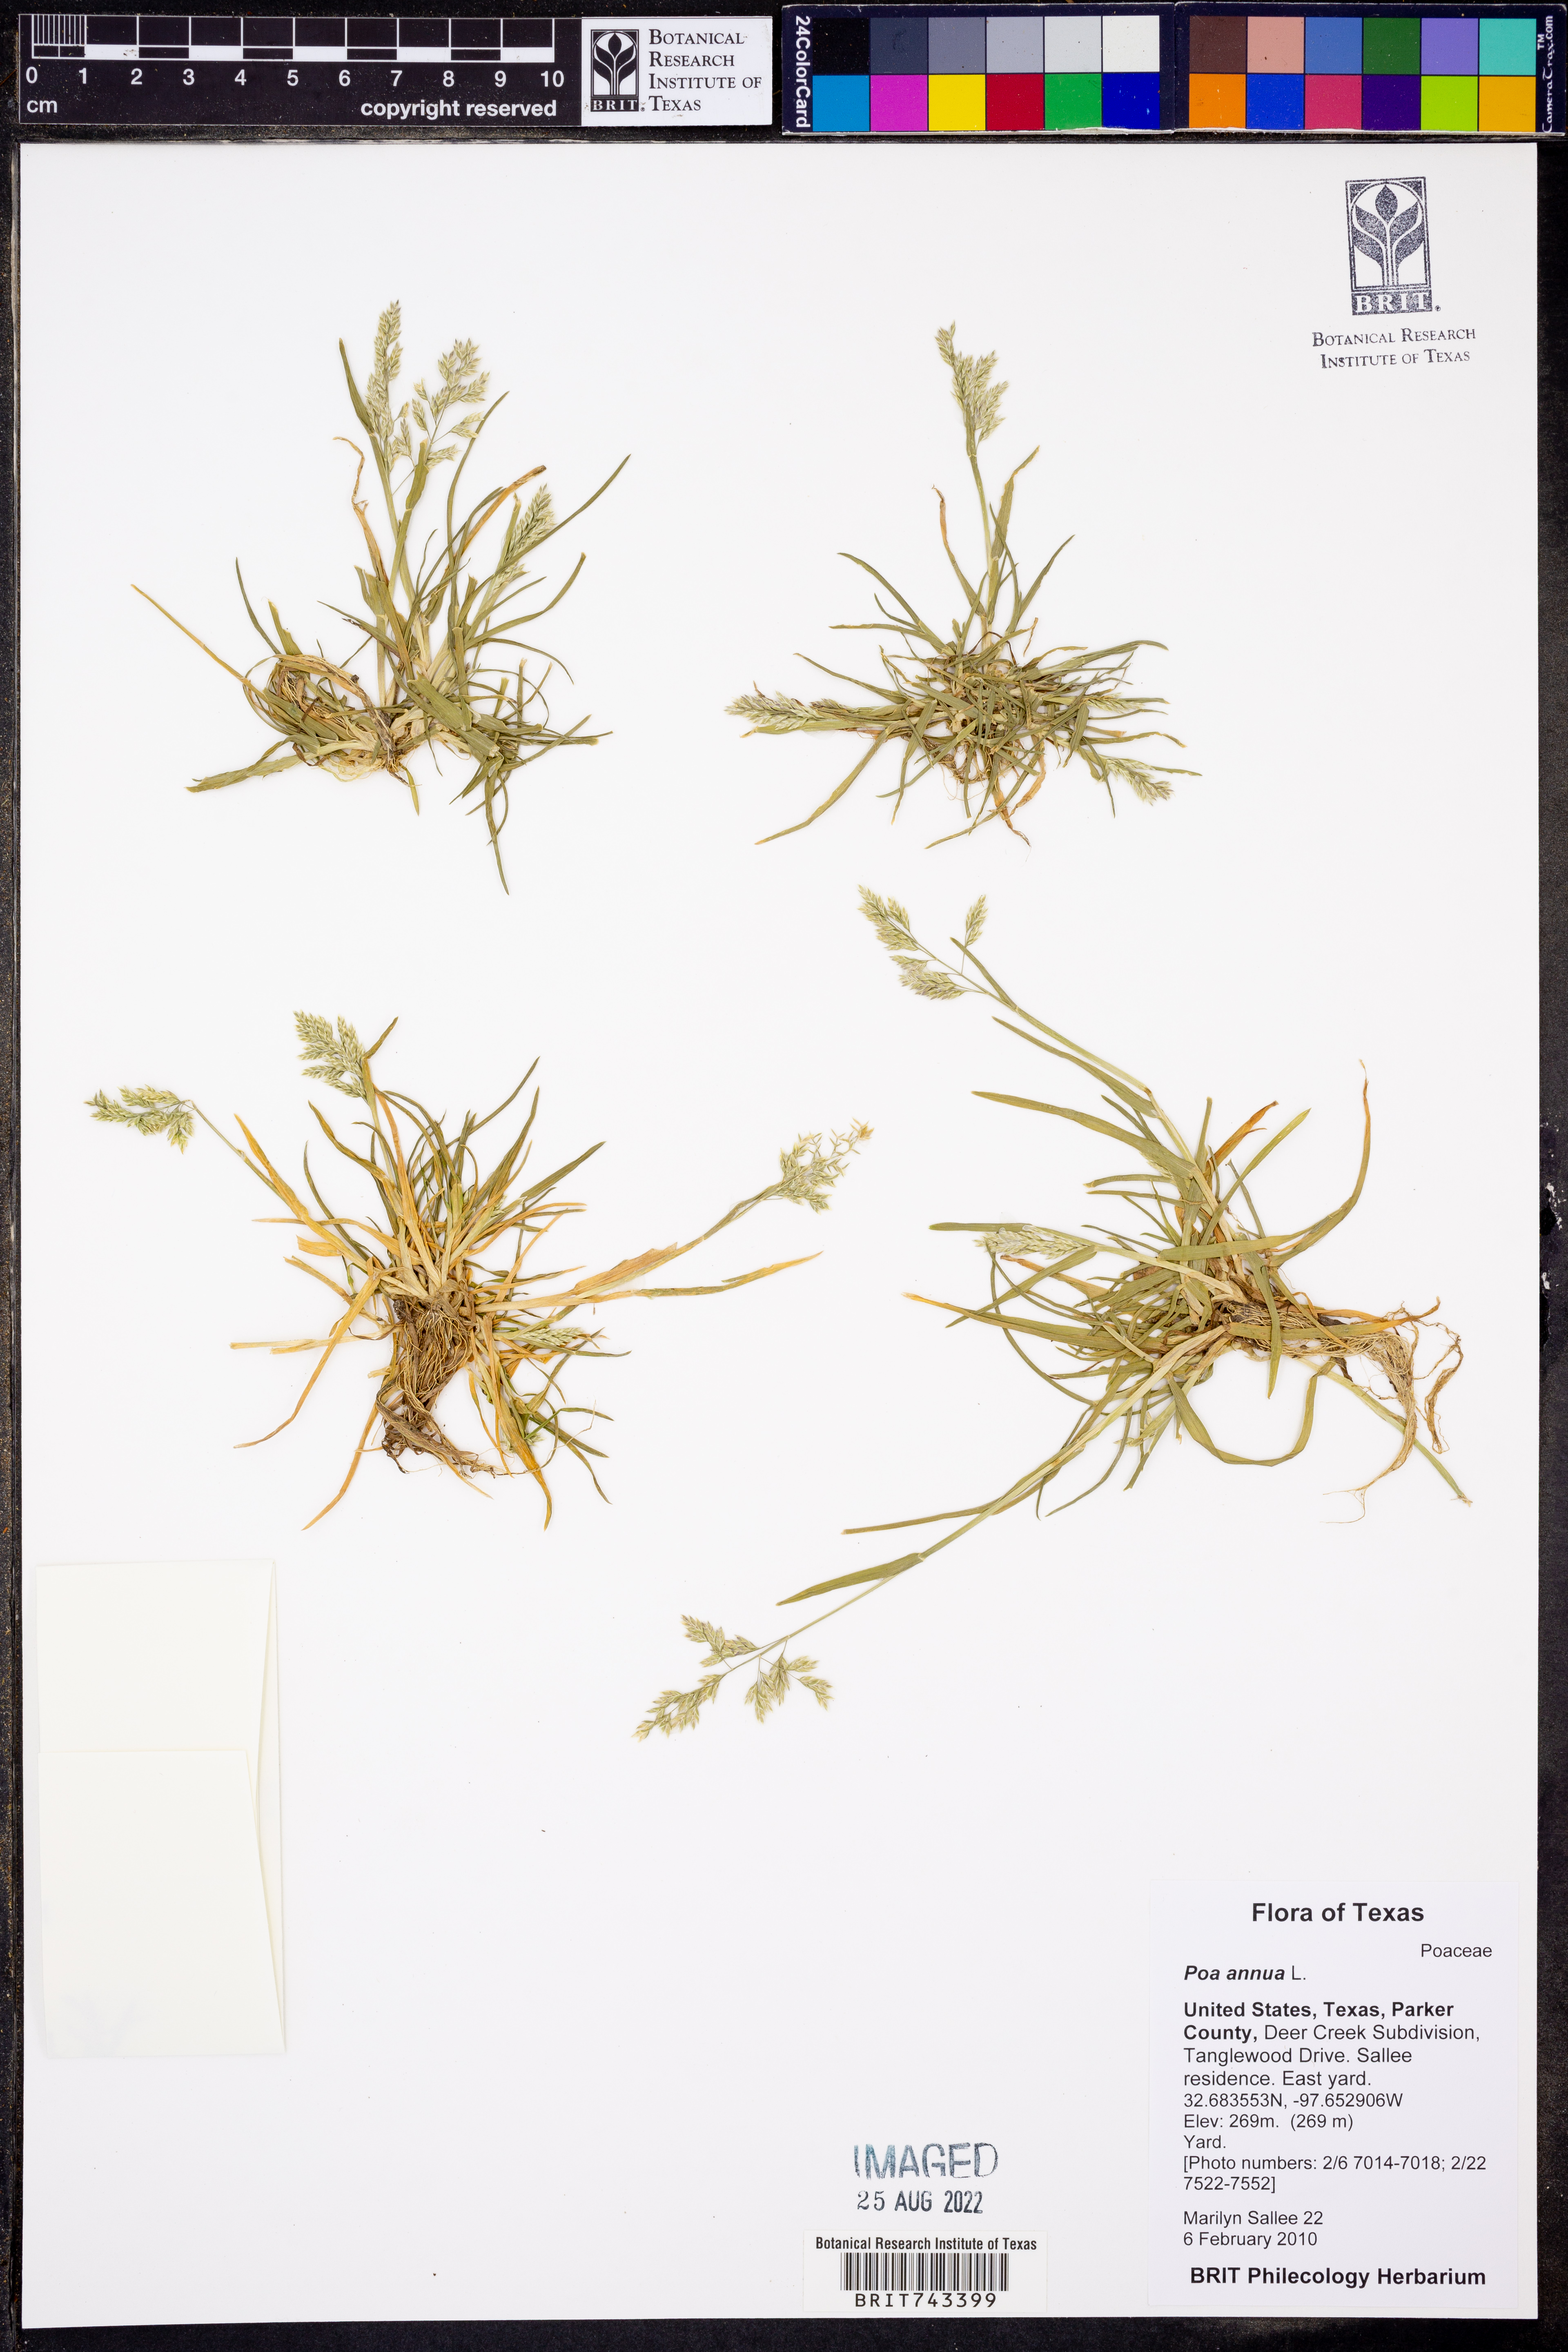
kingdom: Plantae
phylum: Tracheophyta
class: Liliopsida
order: Poales
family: Poaceae
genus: Poa
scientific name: Poa annua
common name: Annual bluegrass
